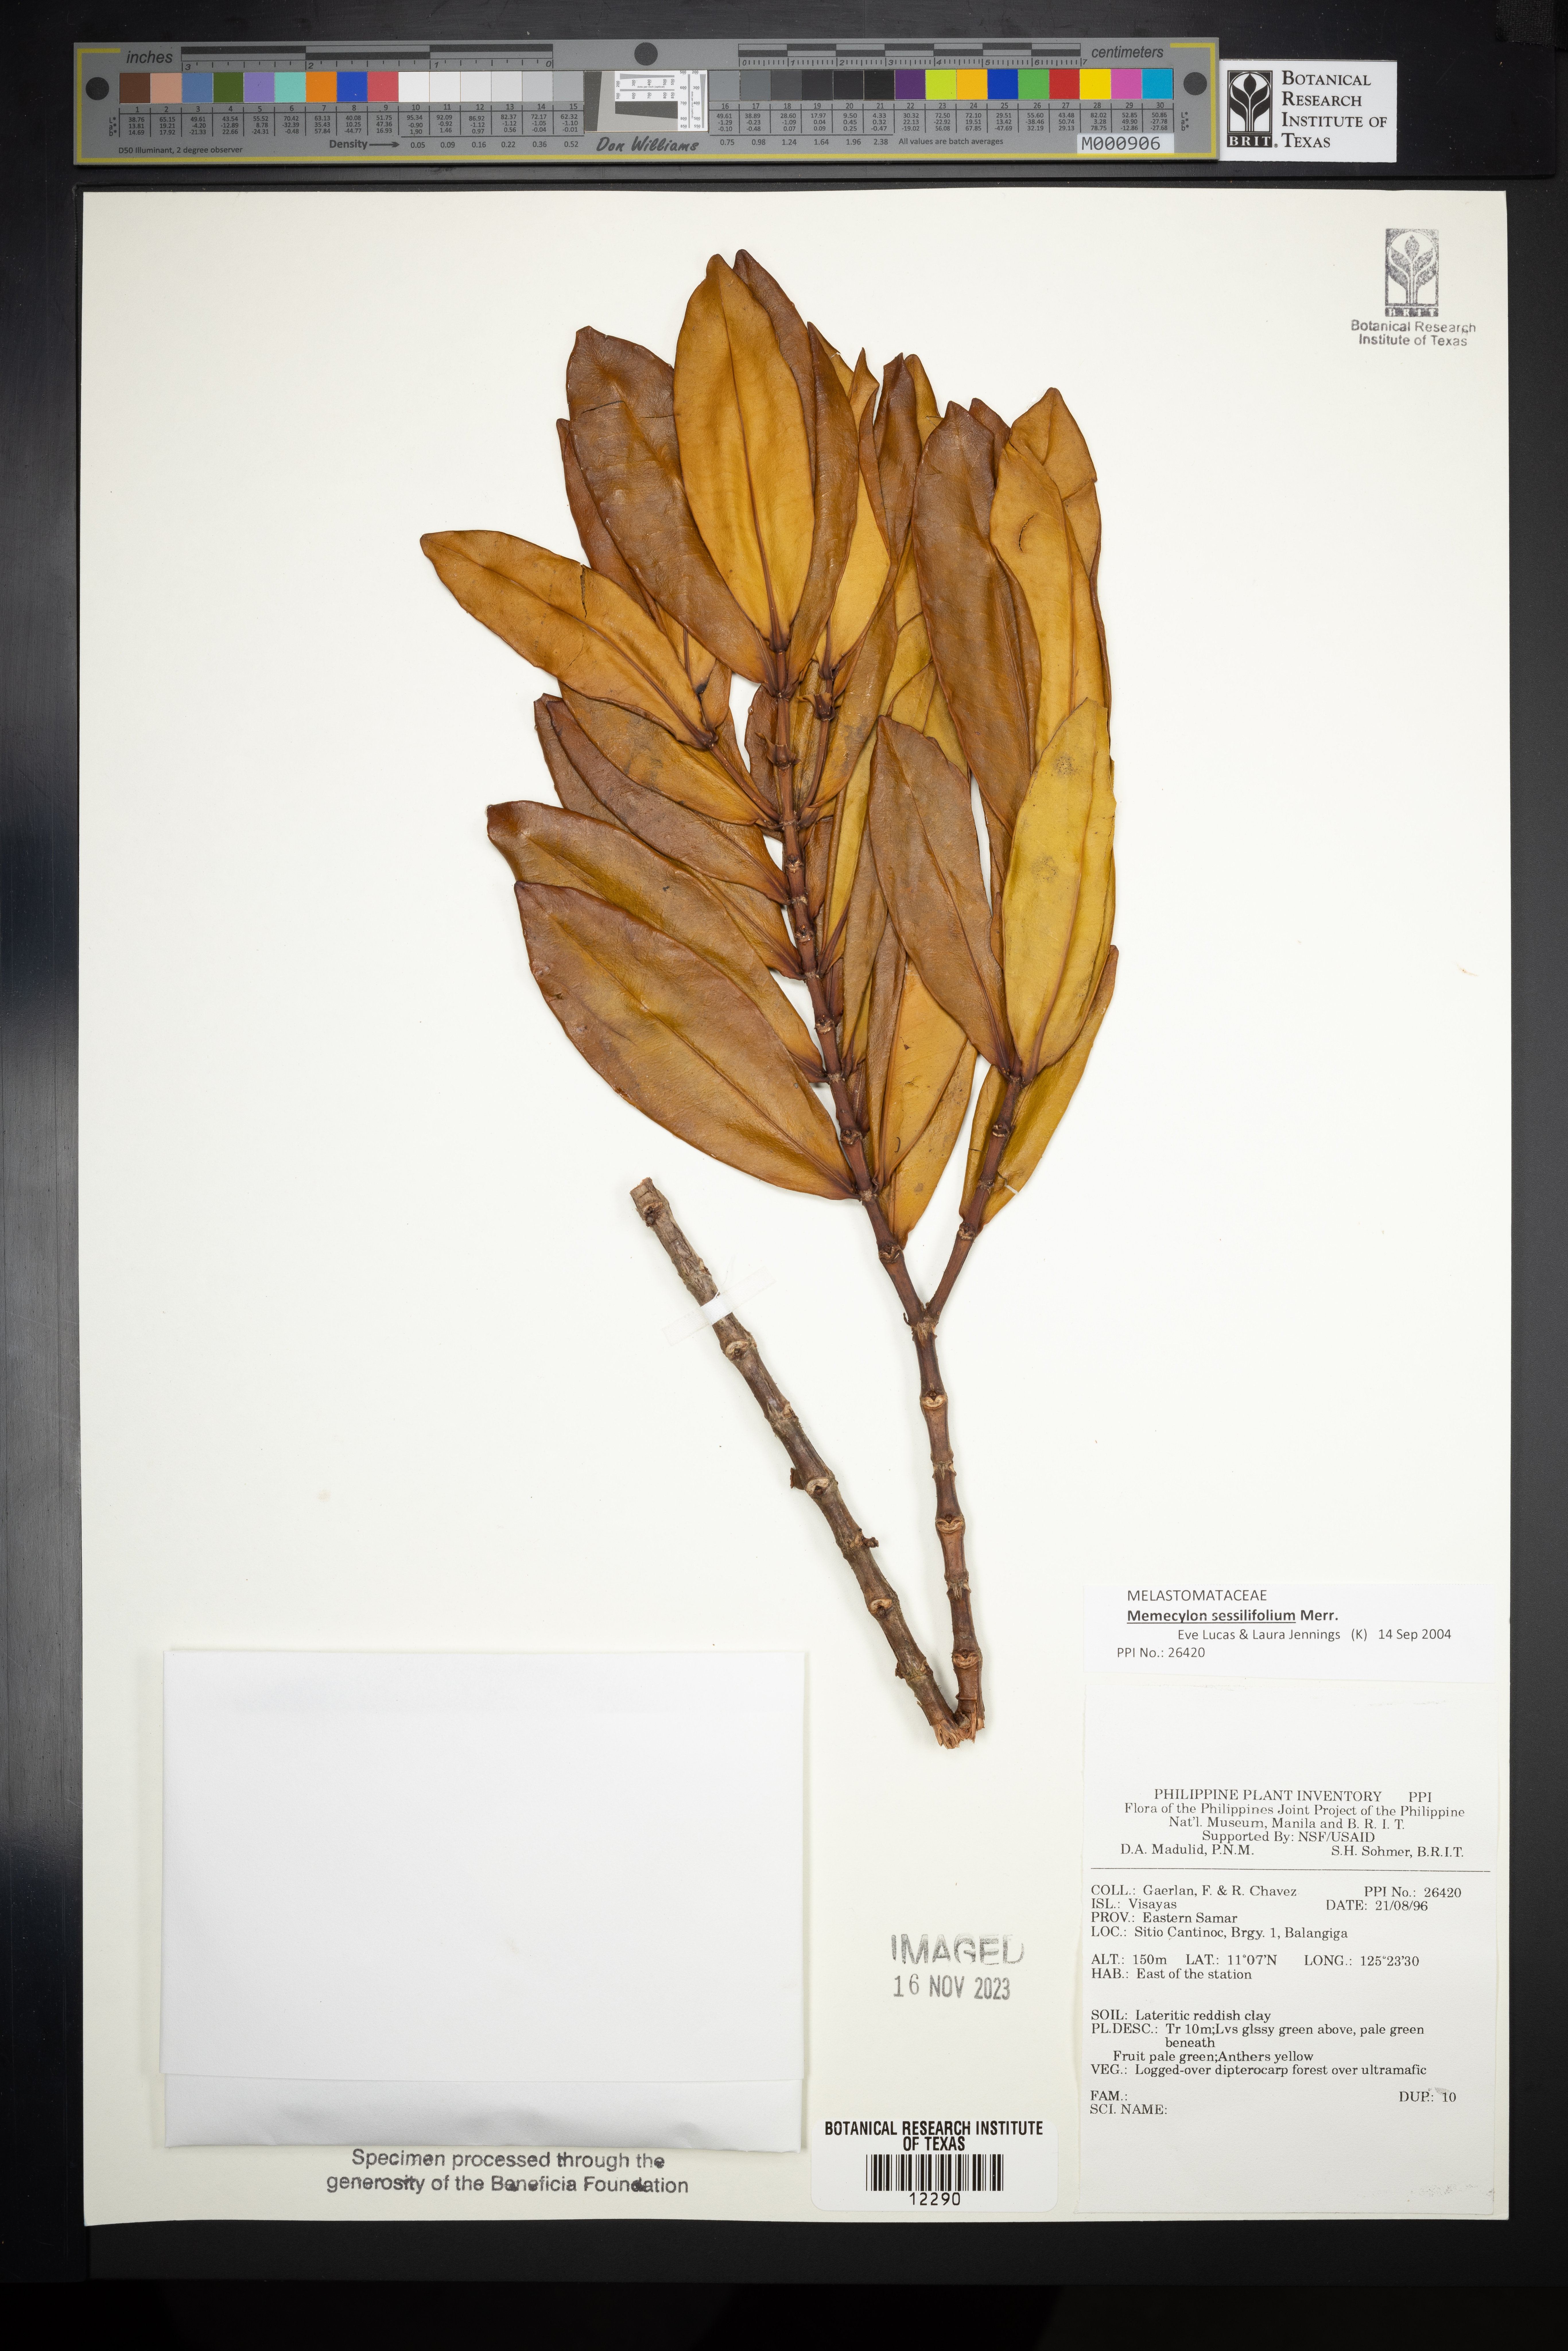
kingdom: Plantae
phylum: Tracheophyta
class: Magnoliopsida
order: Myrtales
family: Melastomataceae
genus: Memecylon
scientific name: Memecylon
